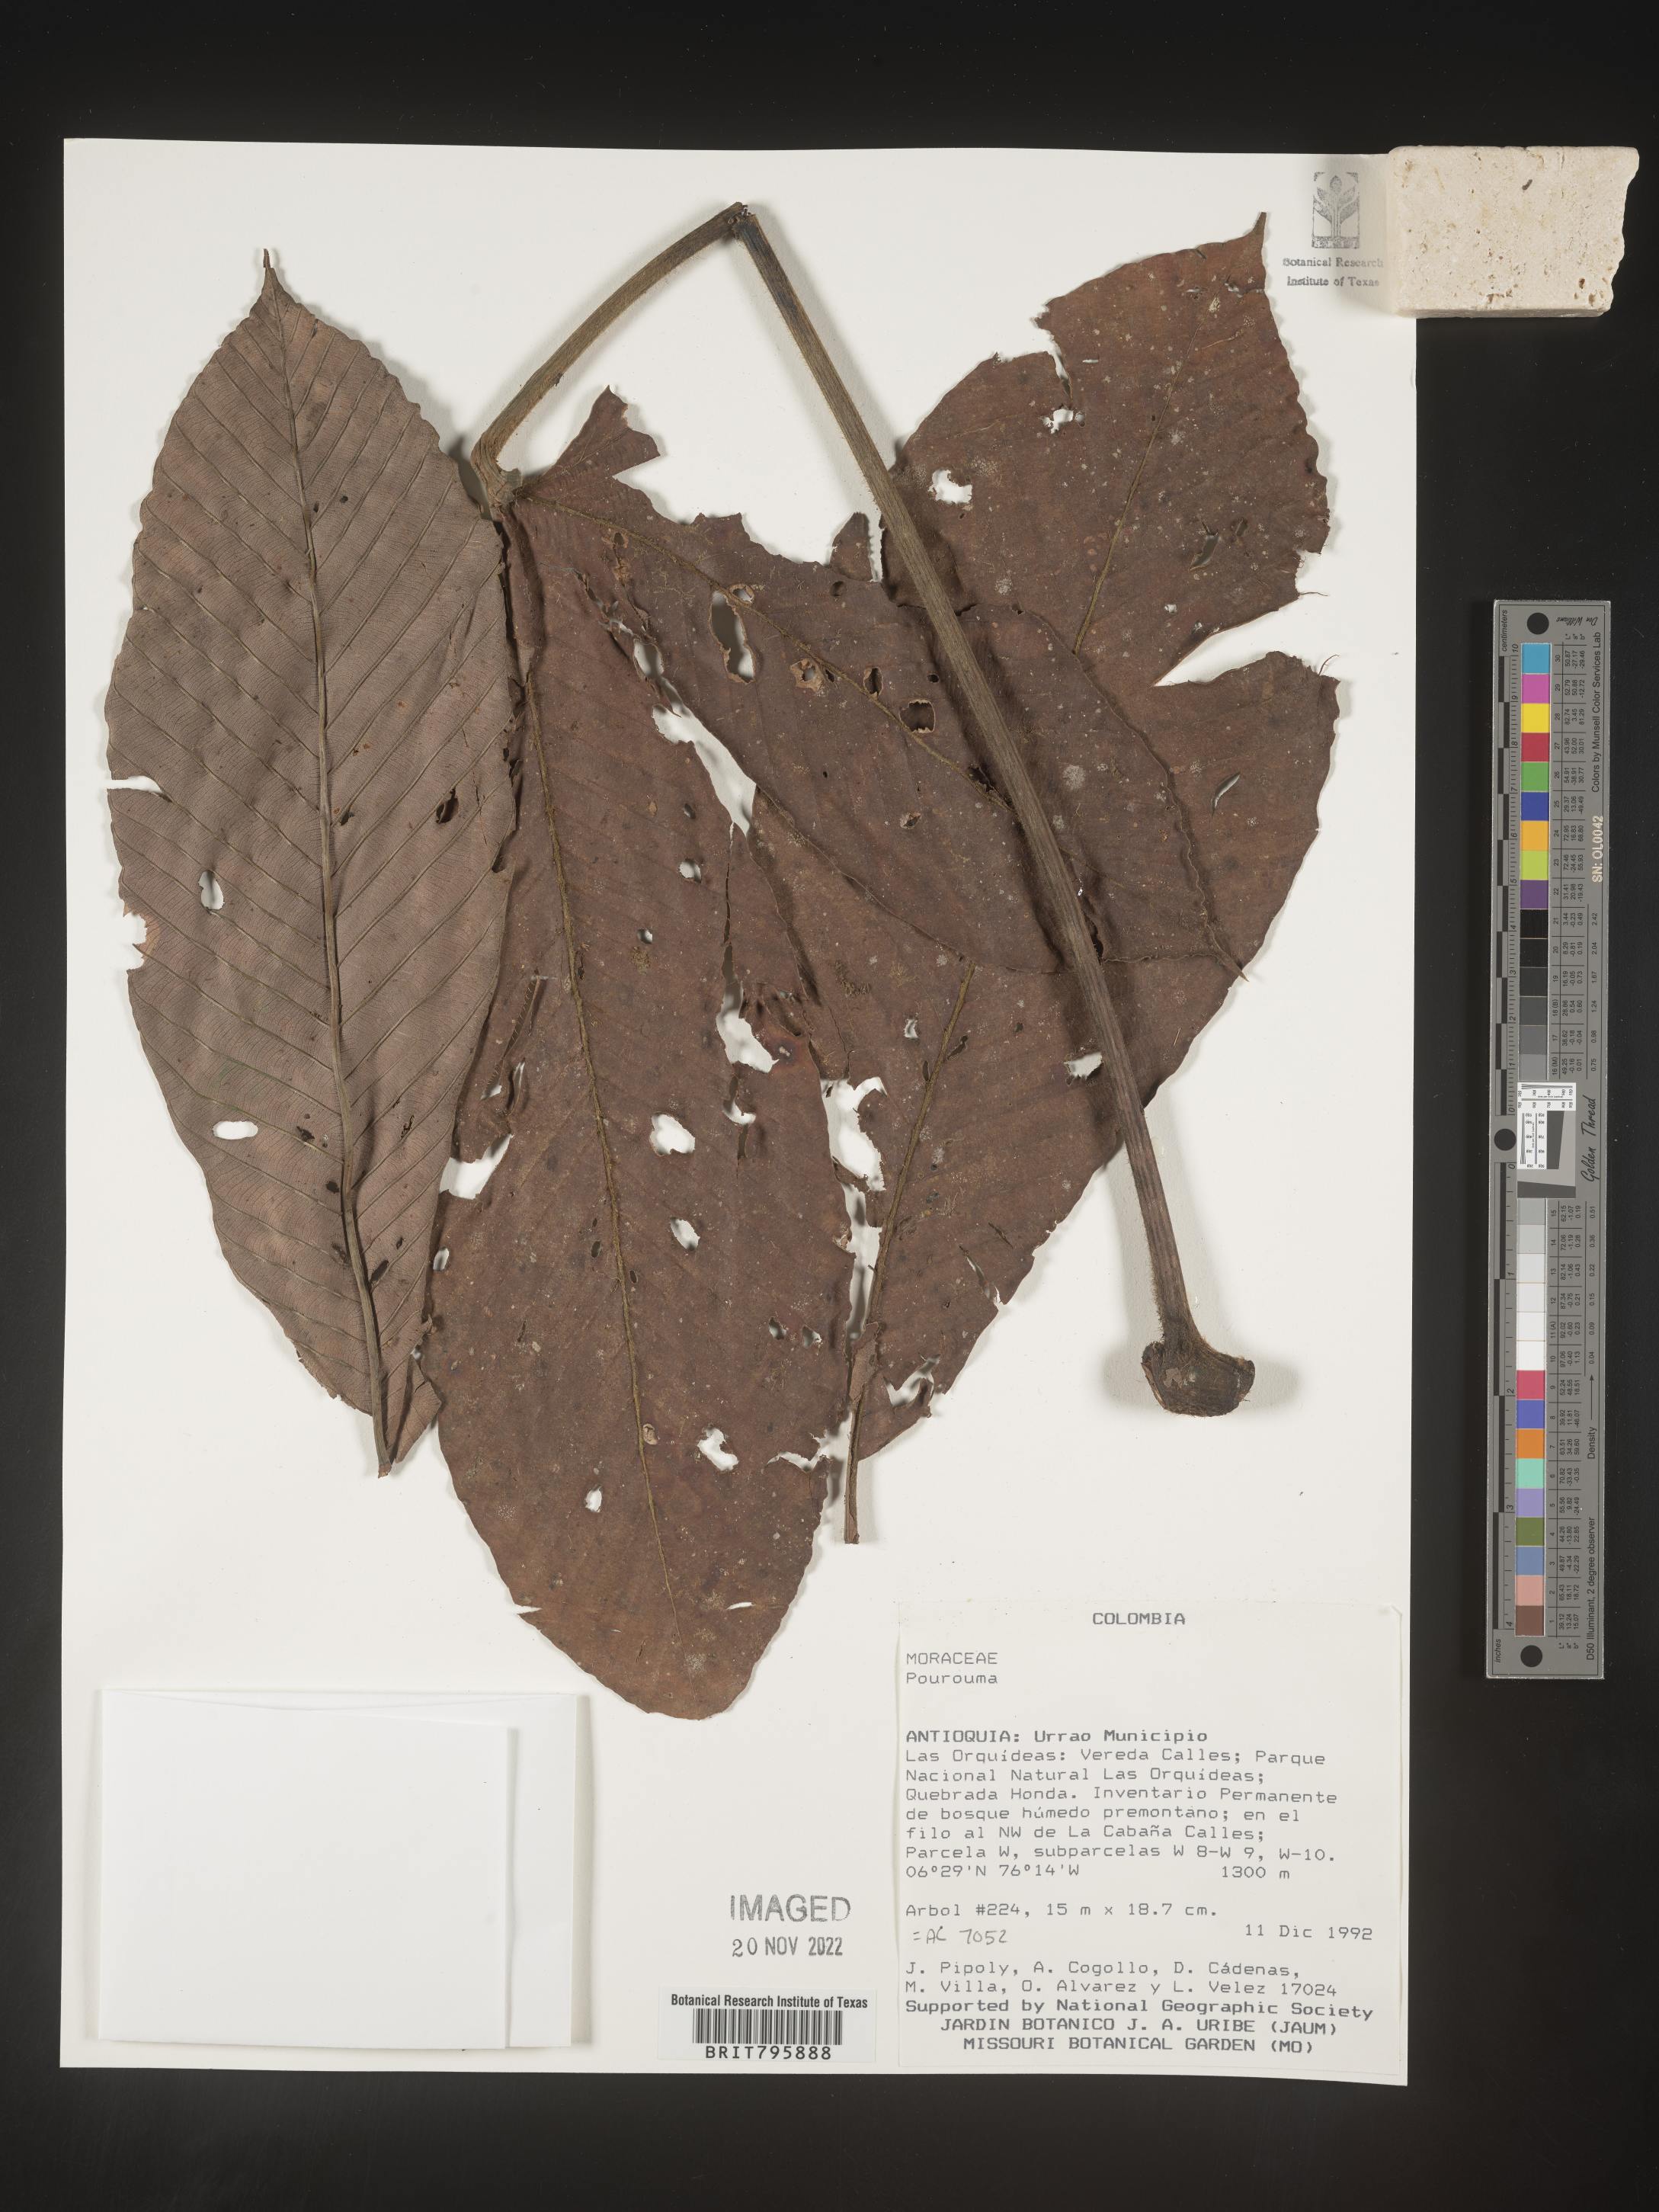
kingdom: Plantae
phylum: Tracheophyta
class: Magnoliopsida
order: Rosales
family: Urticaceae
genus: Pourouma
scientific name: Pourouma
